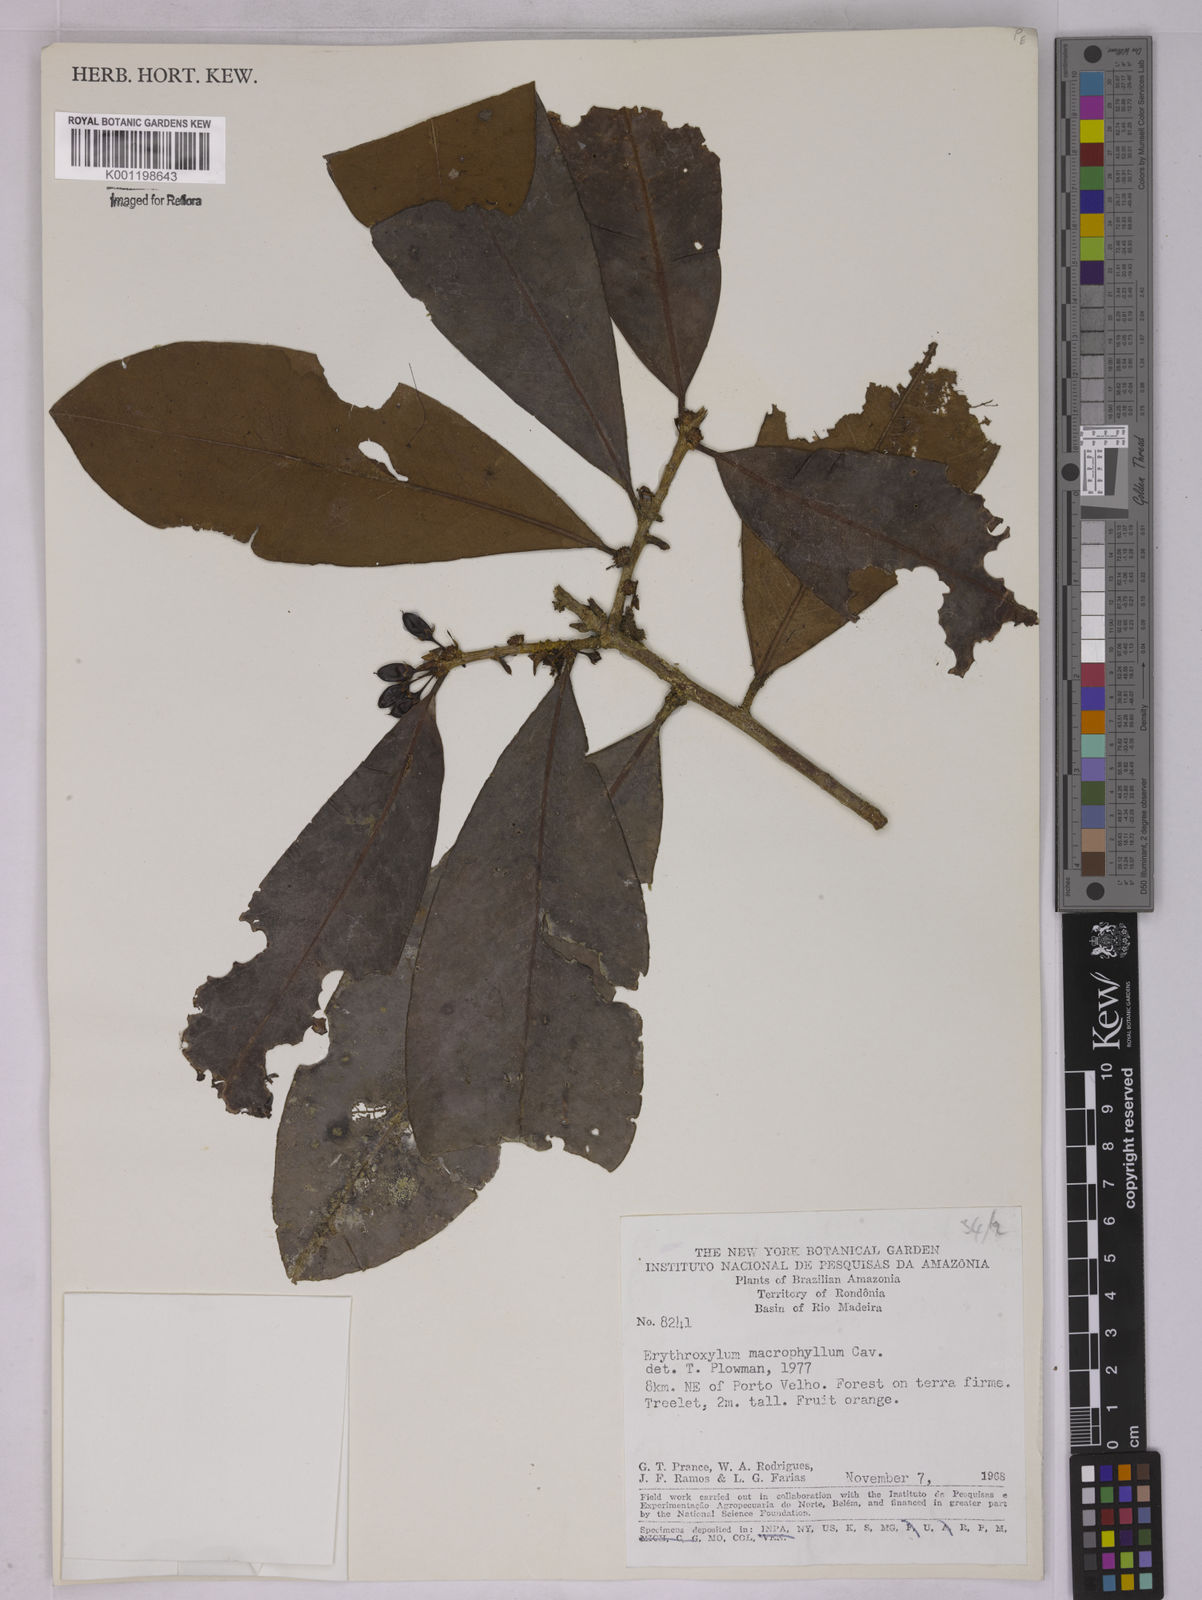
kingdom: Plantae
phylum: Tracheophyta
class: Magnoliopsida
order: Malpighiales
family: Erythroxylaceae
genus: Erythroxylum
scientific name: Erythroxylum macrophyllum
